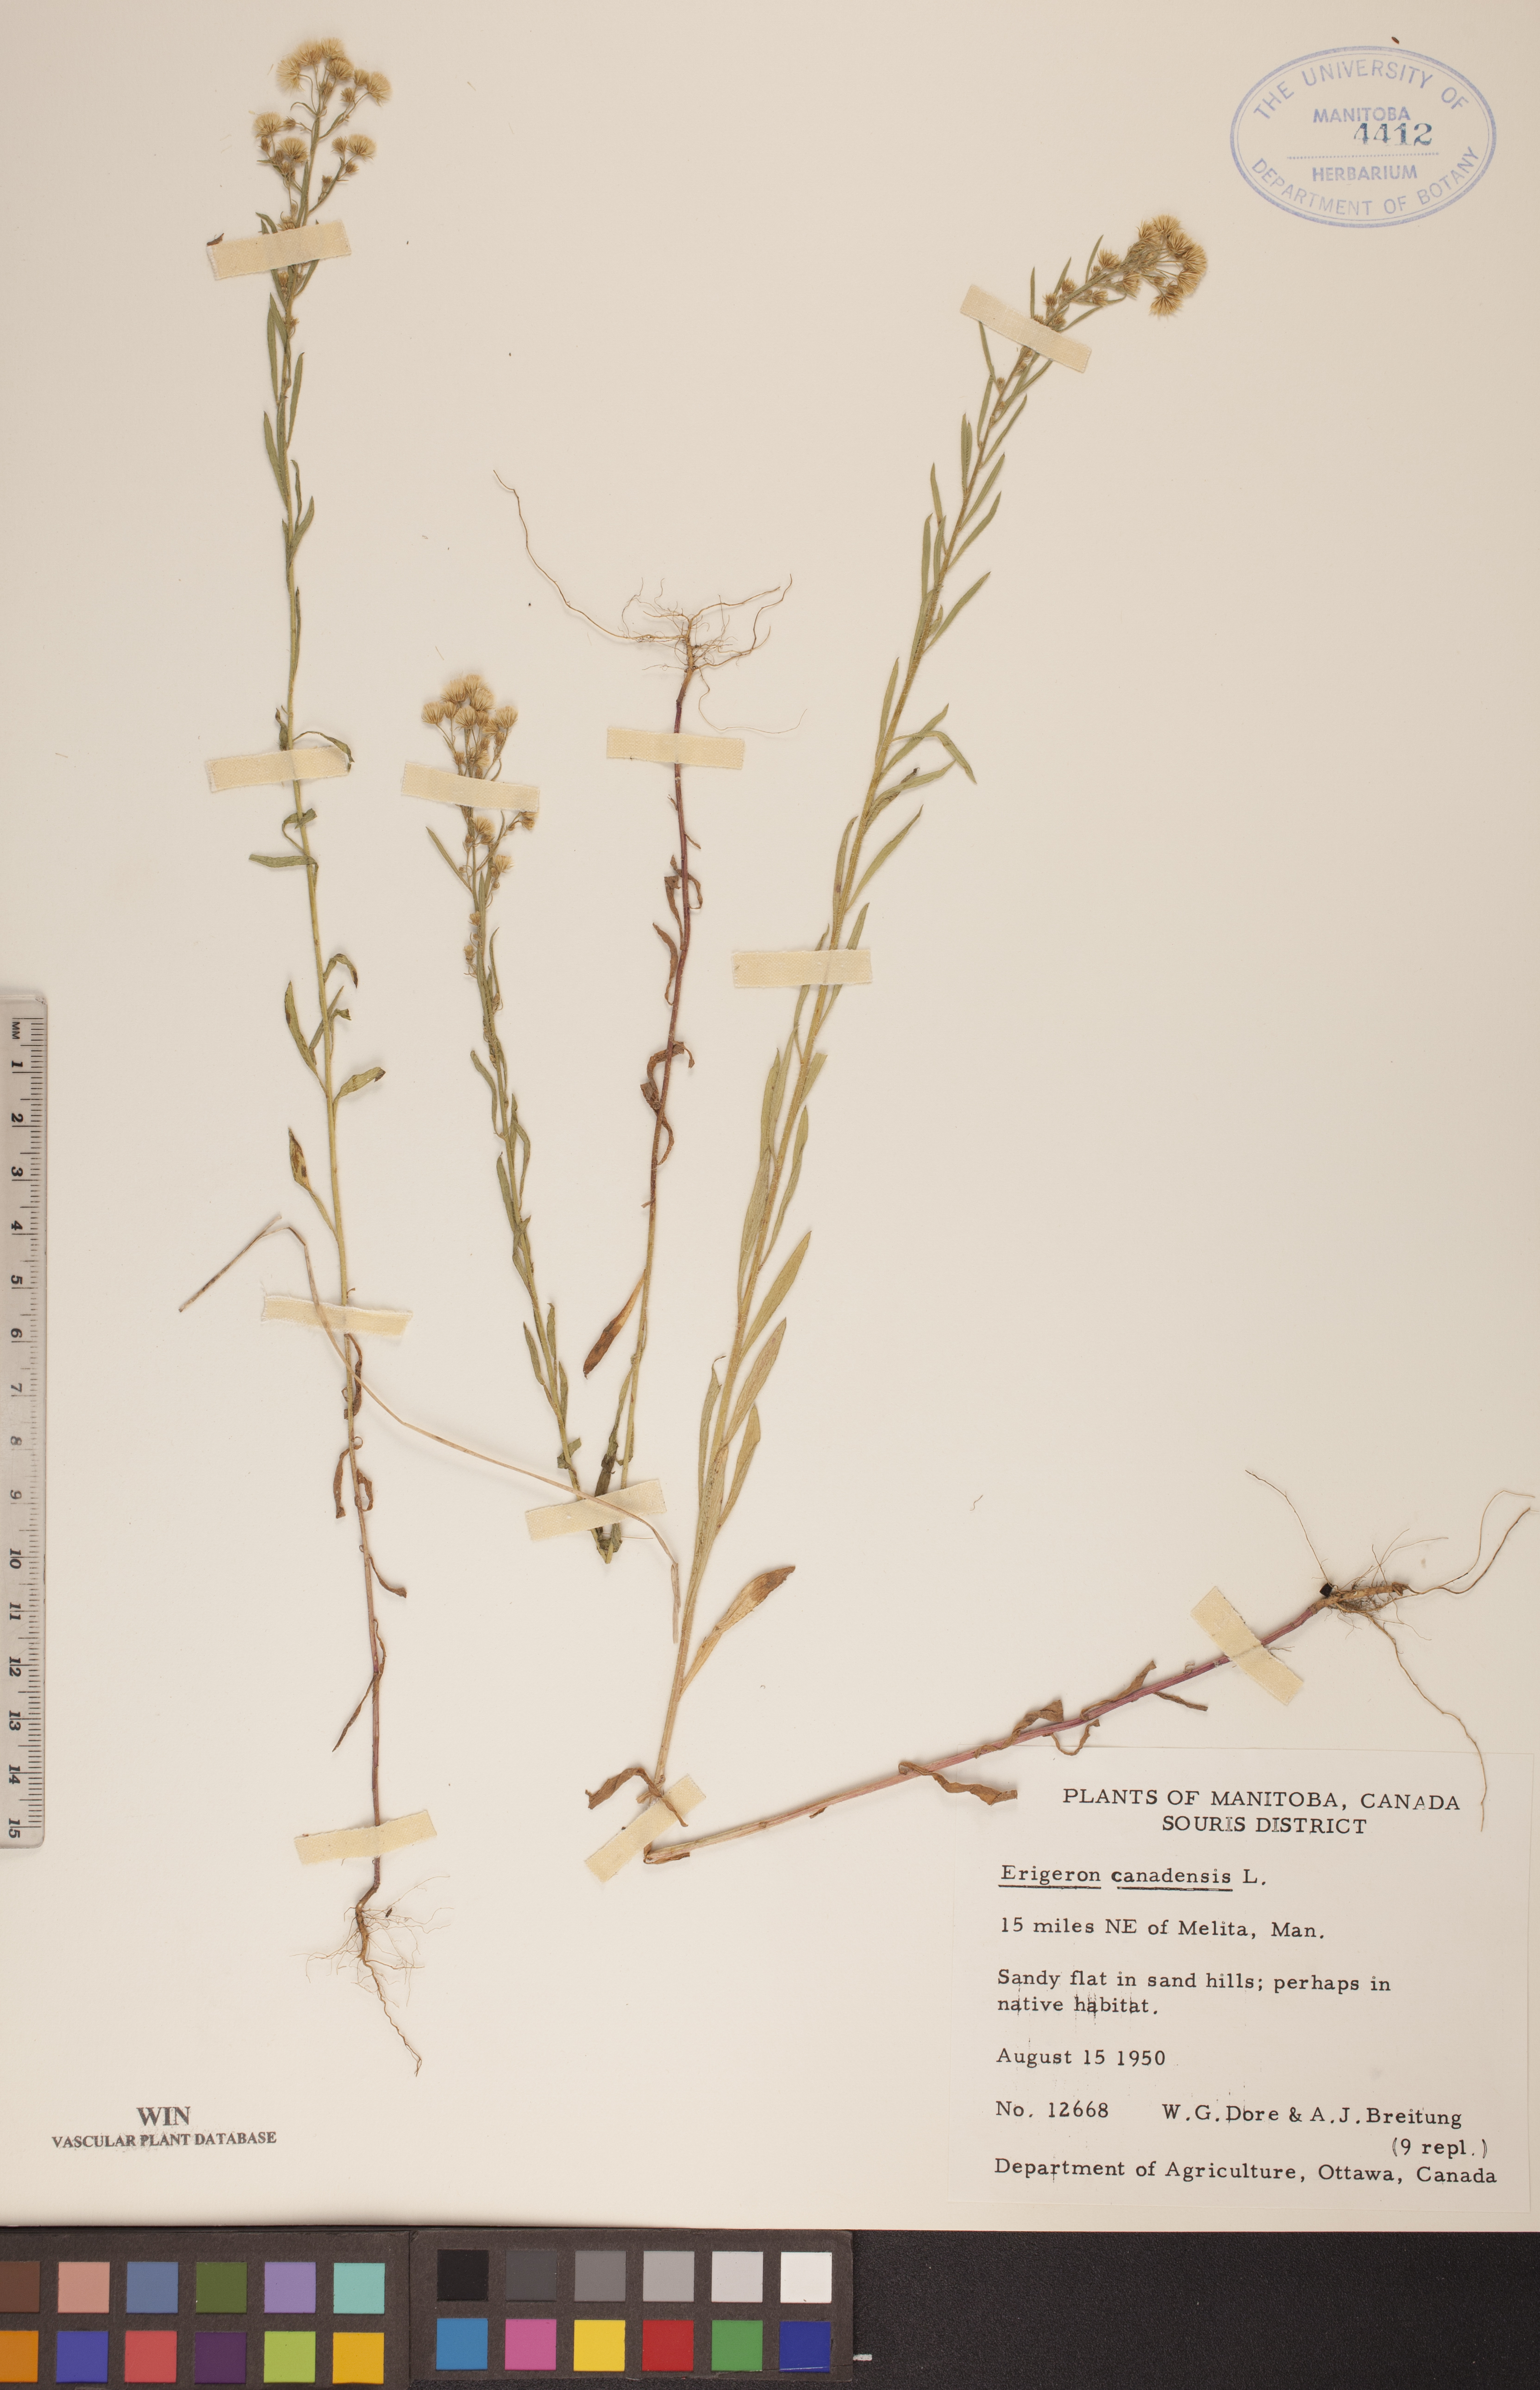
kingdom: Plantae
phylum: Tracheophyta
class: Magnoliopsida
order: Asterales
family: Asteraceae
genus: Erigeron
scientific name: Erigeron canadensis
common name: Canadian fleabane
